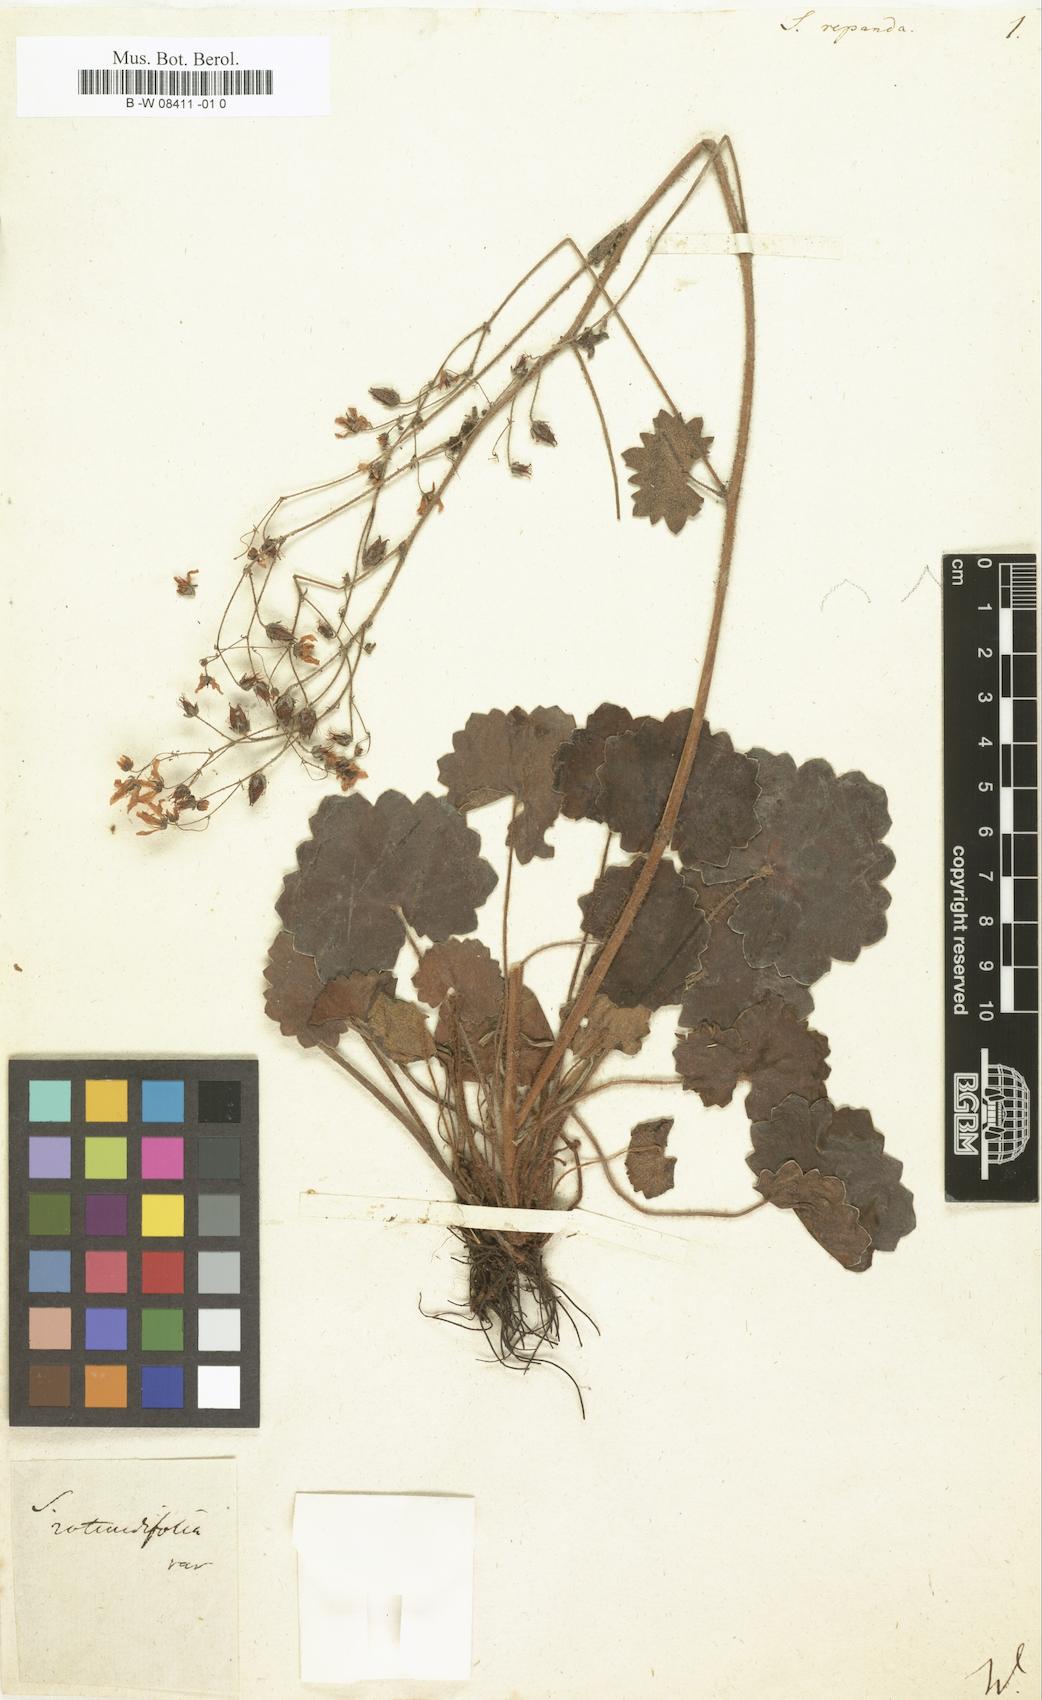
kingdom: Plantae
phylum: Tracheophyta
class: Magnoliopsida
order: Saxifragales
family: Saxifragaceae
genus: Saxifraga
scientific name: Saxifraga repanda
